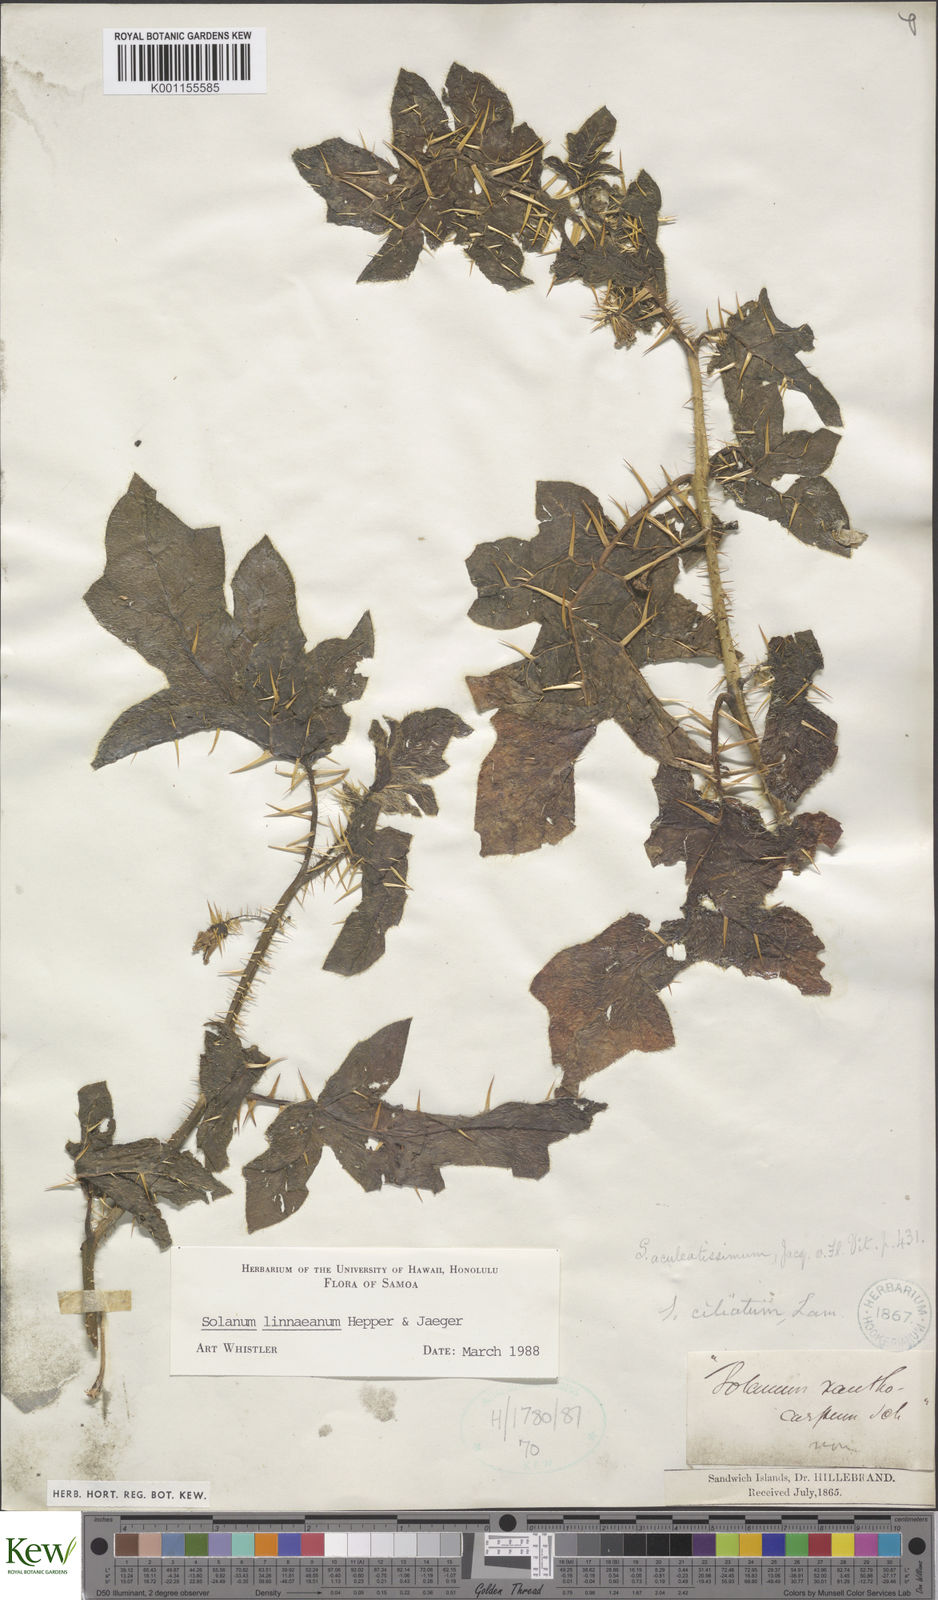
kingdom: Plantae
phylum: Tracheophyta
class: Magnoliopsida
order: Solanales
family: Solanaceae
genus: Solanum
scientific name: Solanum linnaeanum
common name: Nightshade
